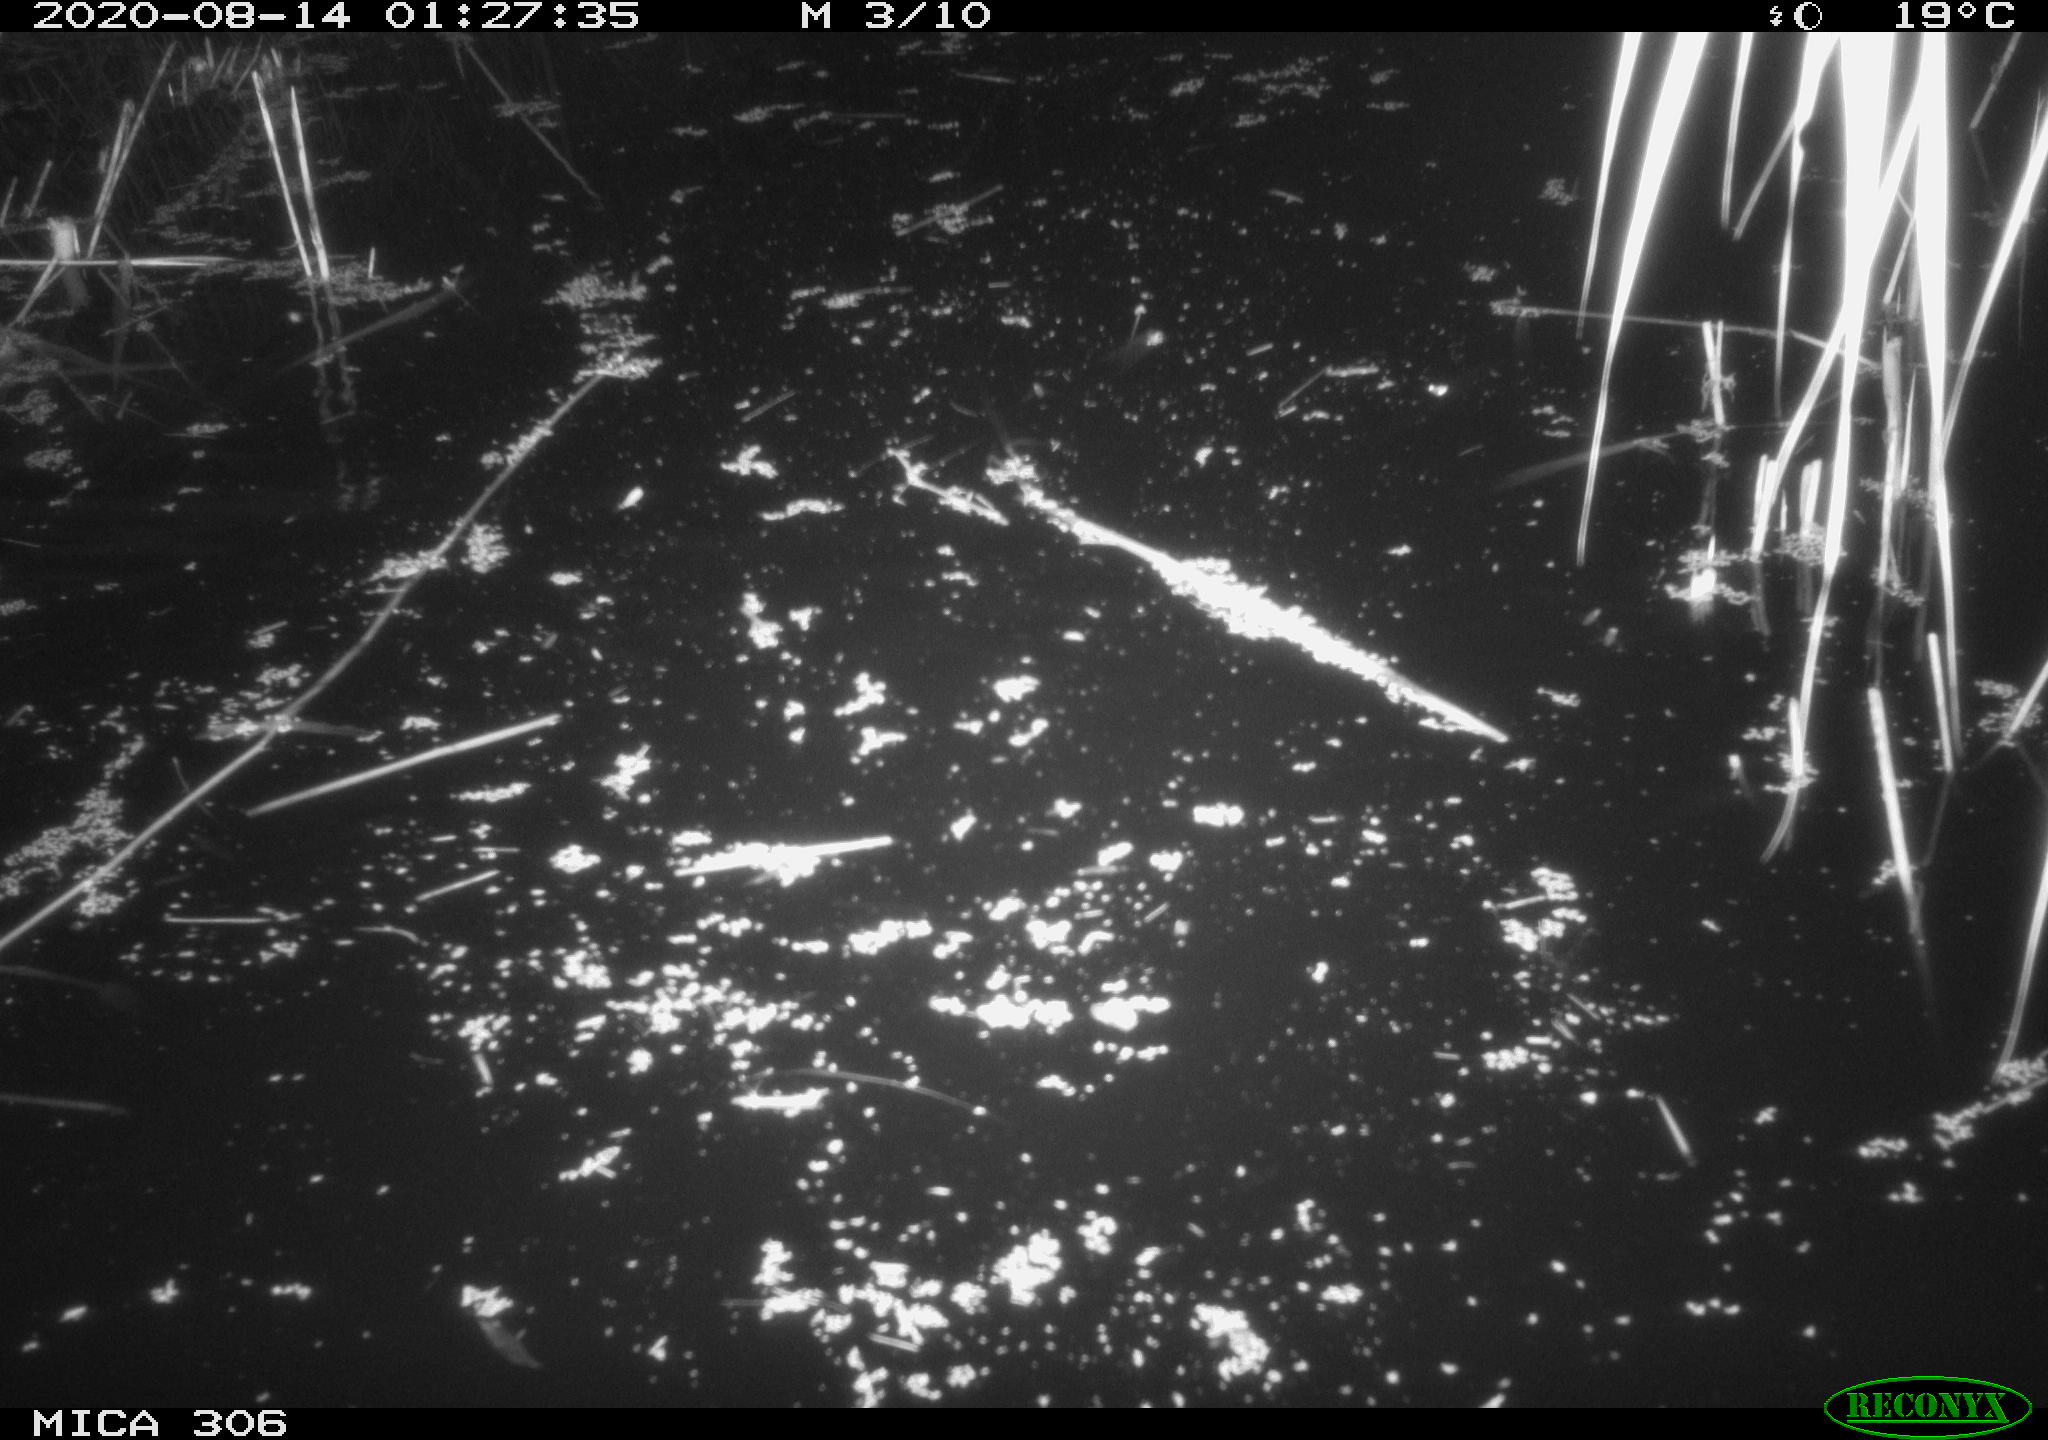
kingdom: Animalia
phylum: Chordata
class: Mammalia
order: Rodentia
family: Muridae
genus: Rattus
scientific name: Rattus norvegicus
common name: Brown rat
